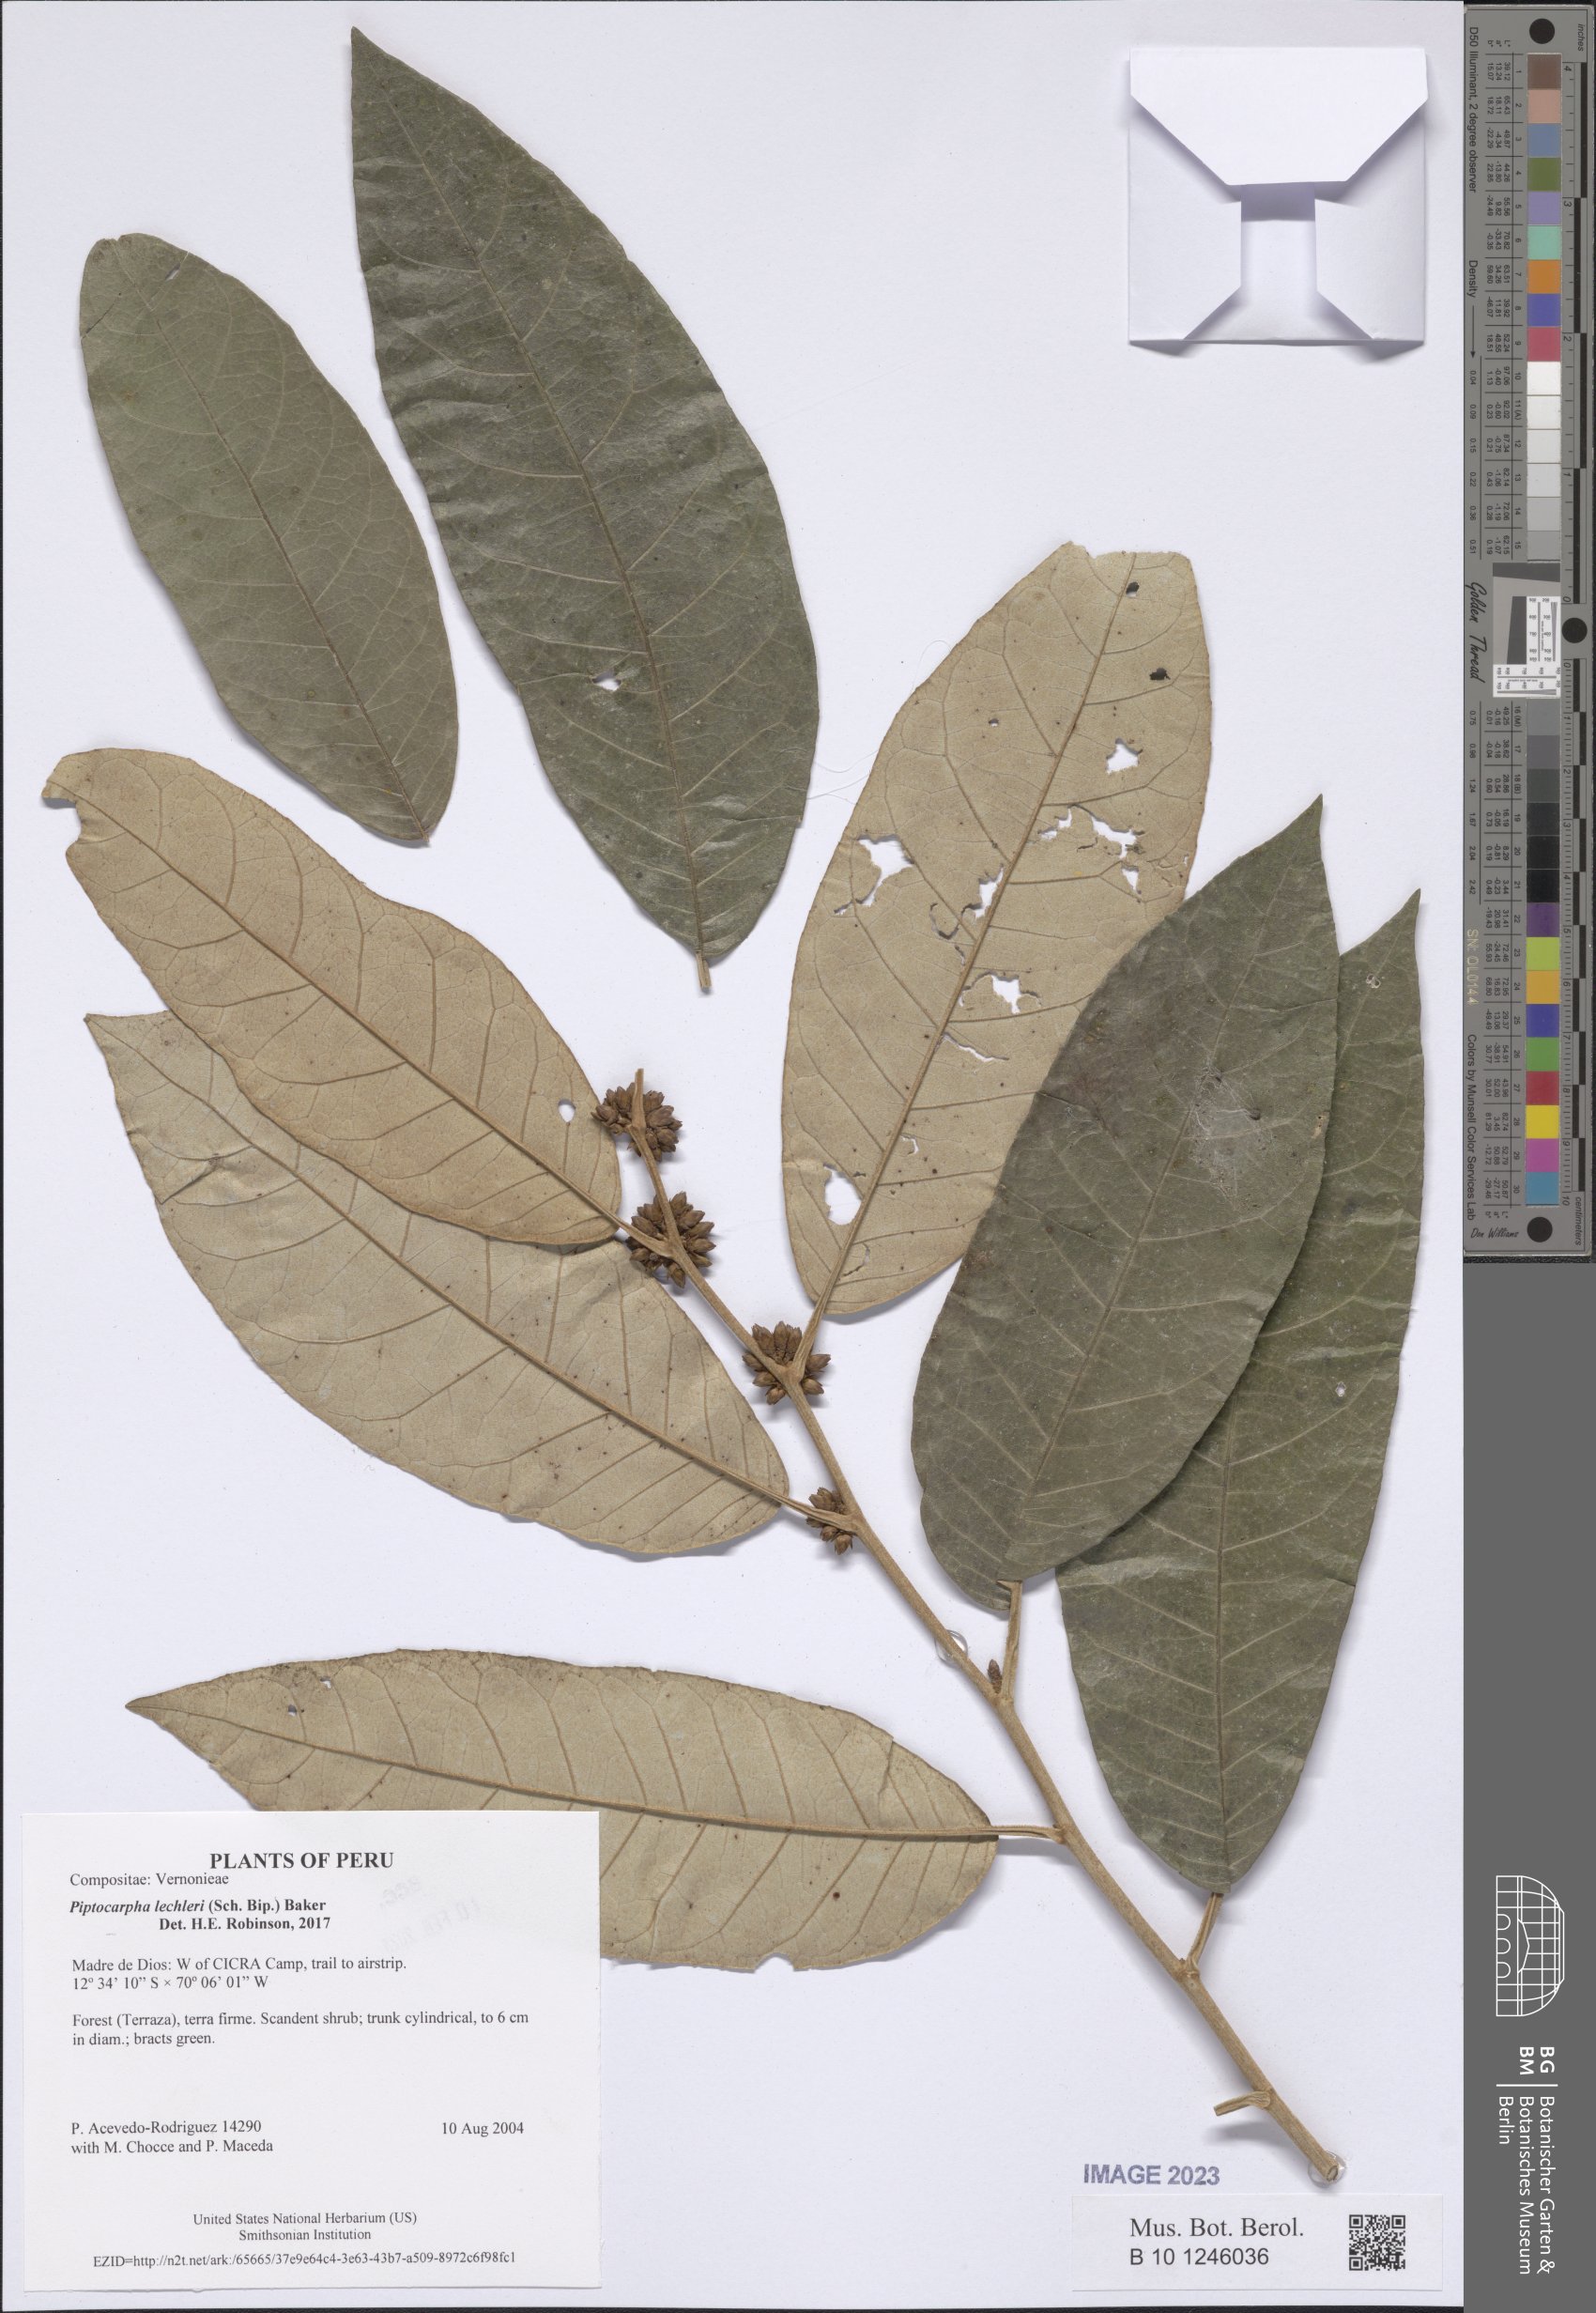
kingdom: Plantae
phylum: Tracheophyta
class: Magnoliopsida
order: Asterales
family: Asteraceae
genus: Piptocarpha
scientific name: Piptocarpha lechleri
